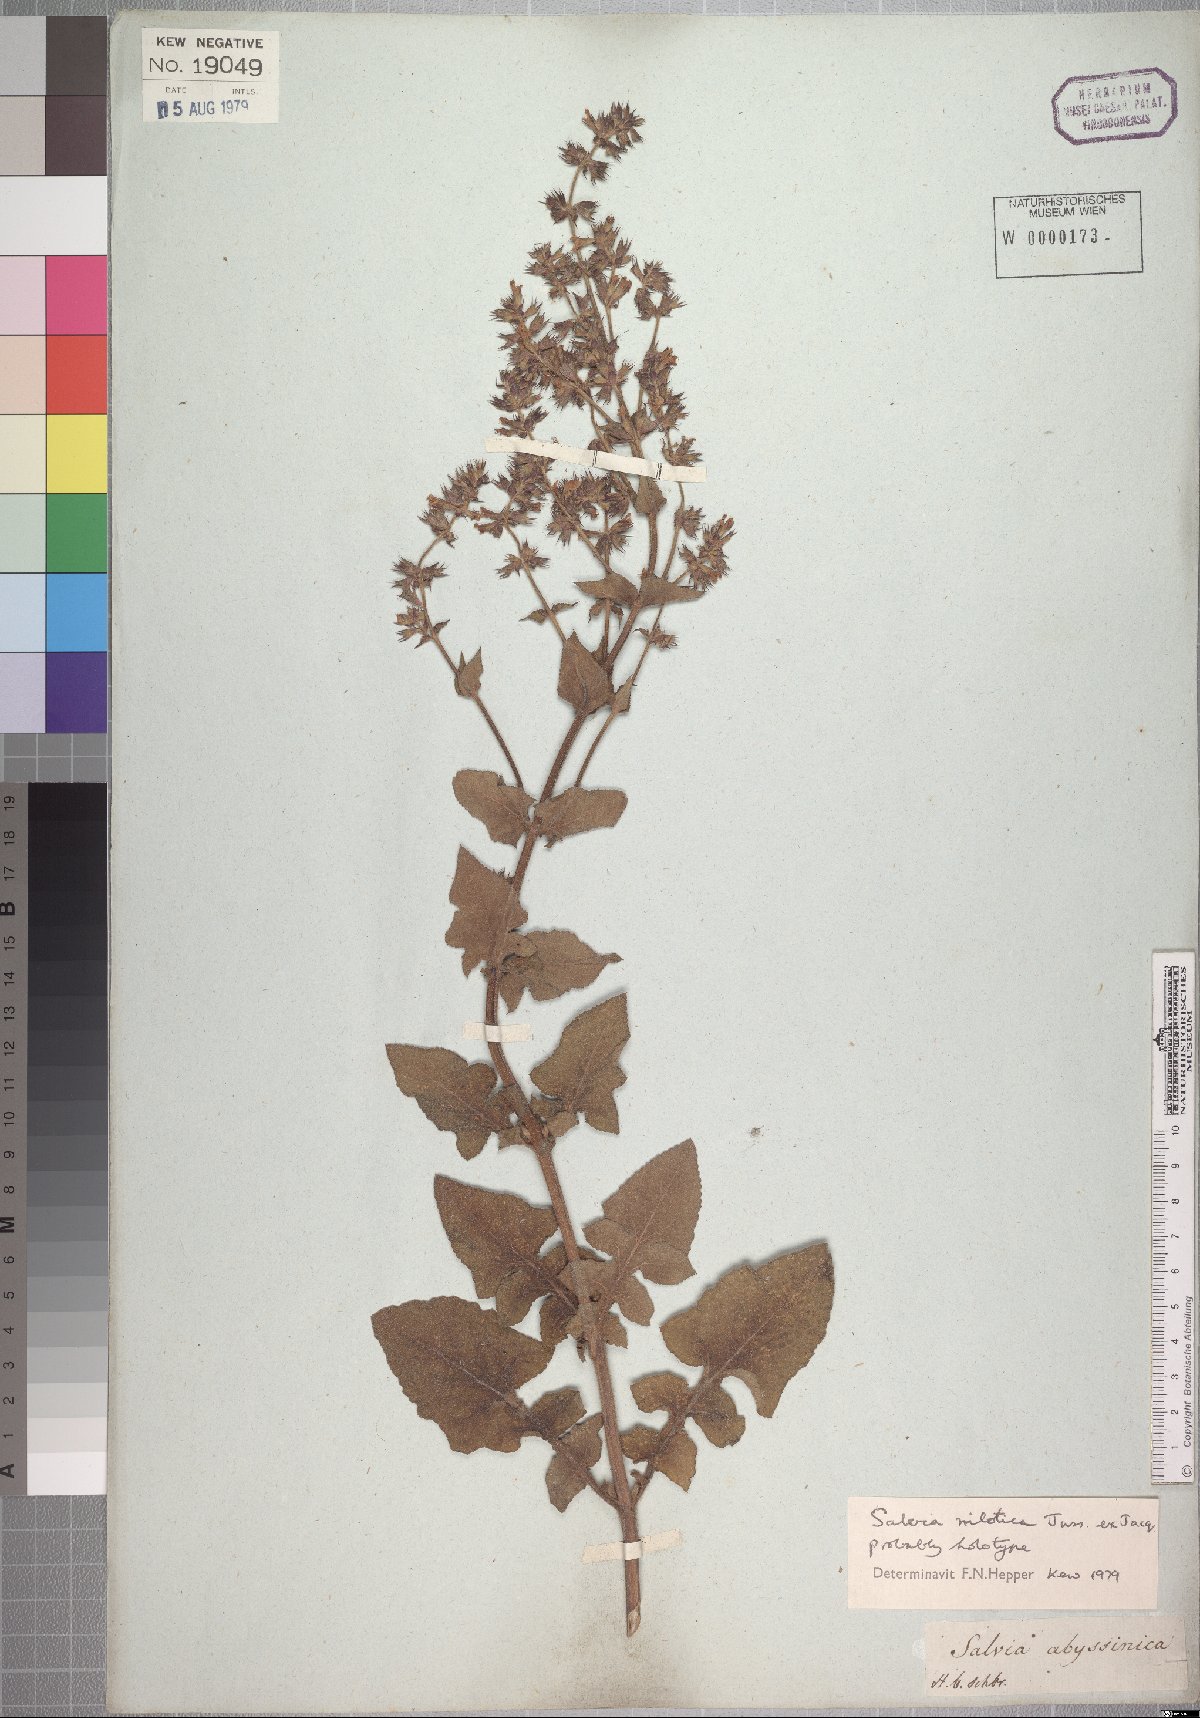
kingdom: Plantae
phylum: Tracheophyta
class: Magnoliopsida
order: Lamiales
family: Lamiaceae
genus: Salvia
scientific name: Salvia nilotica
